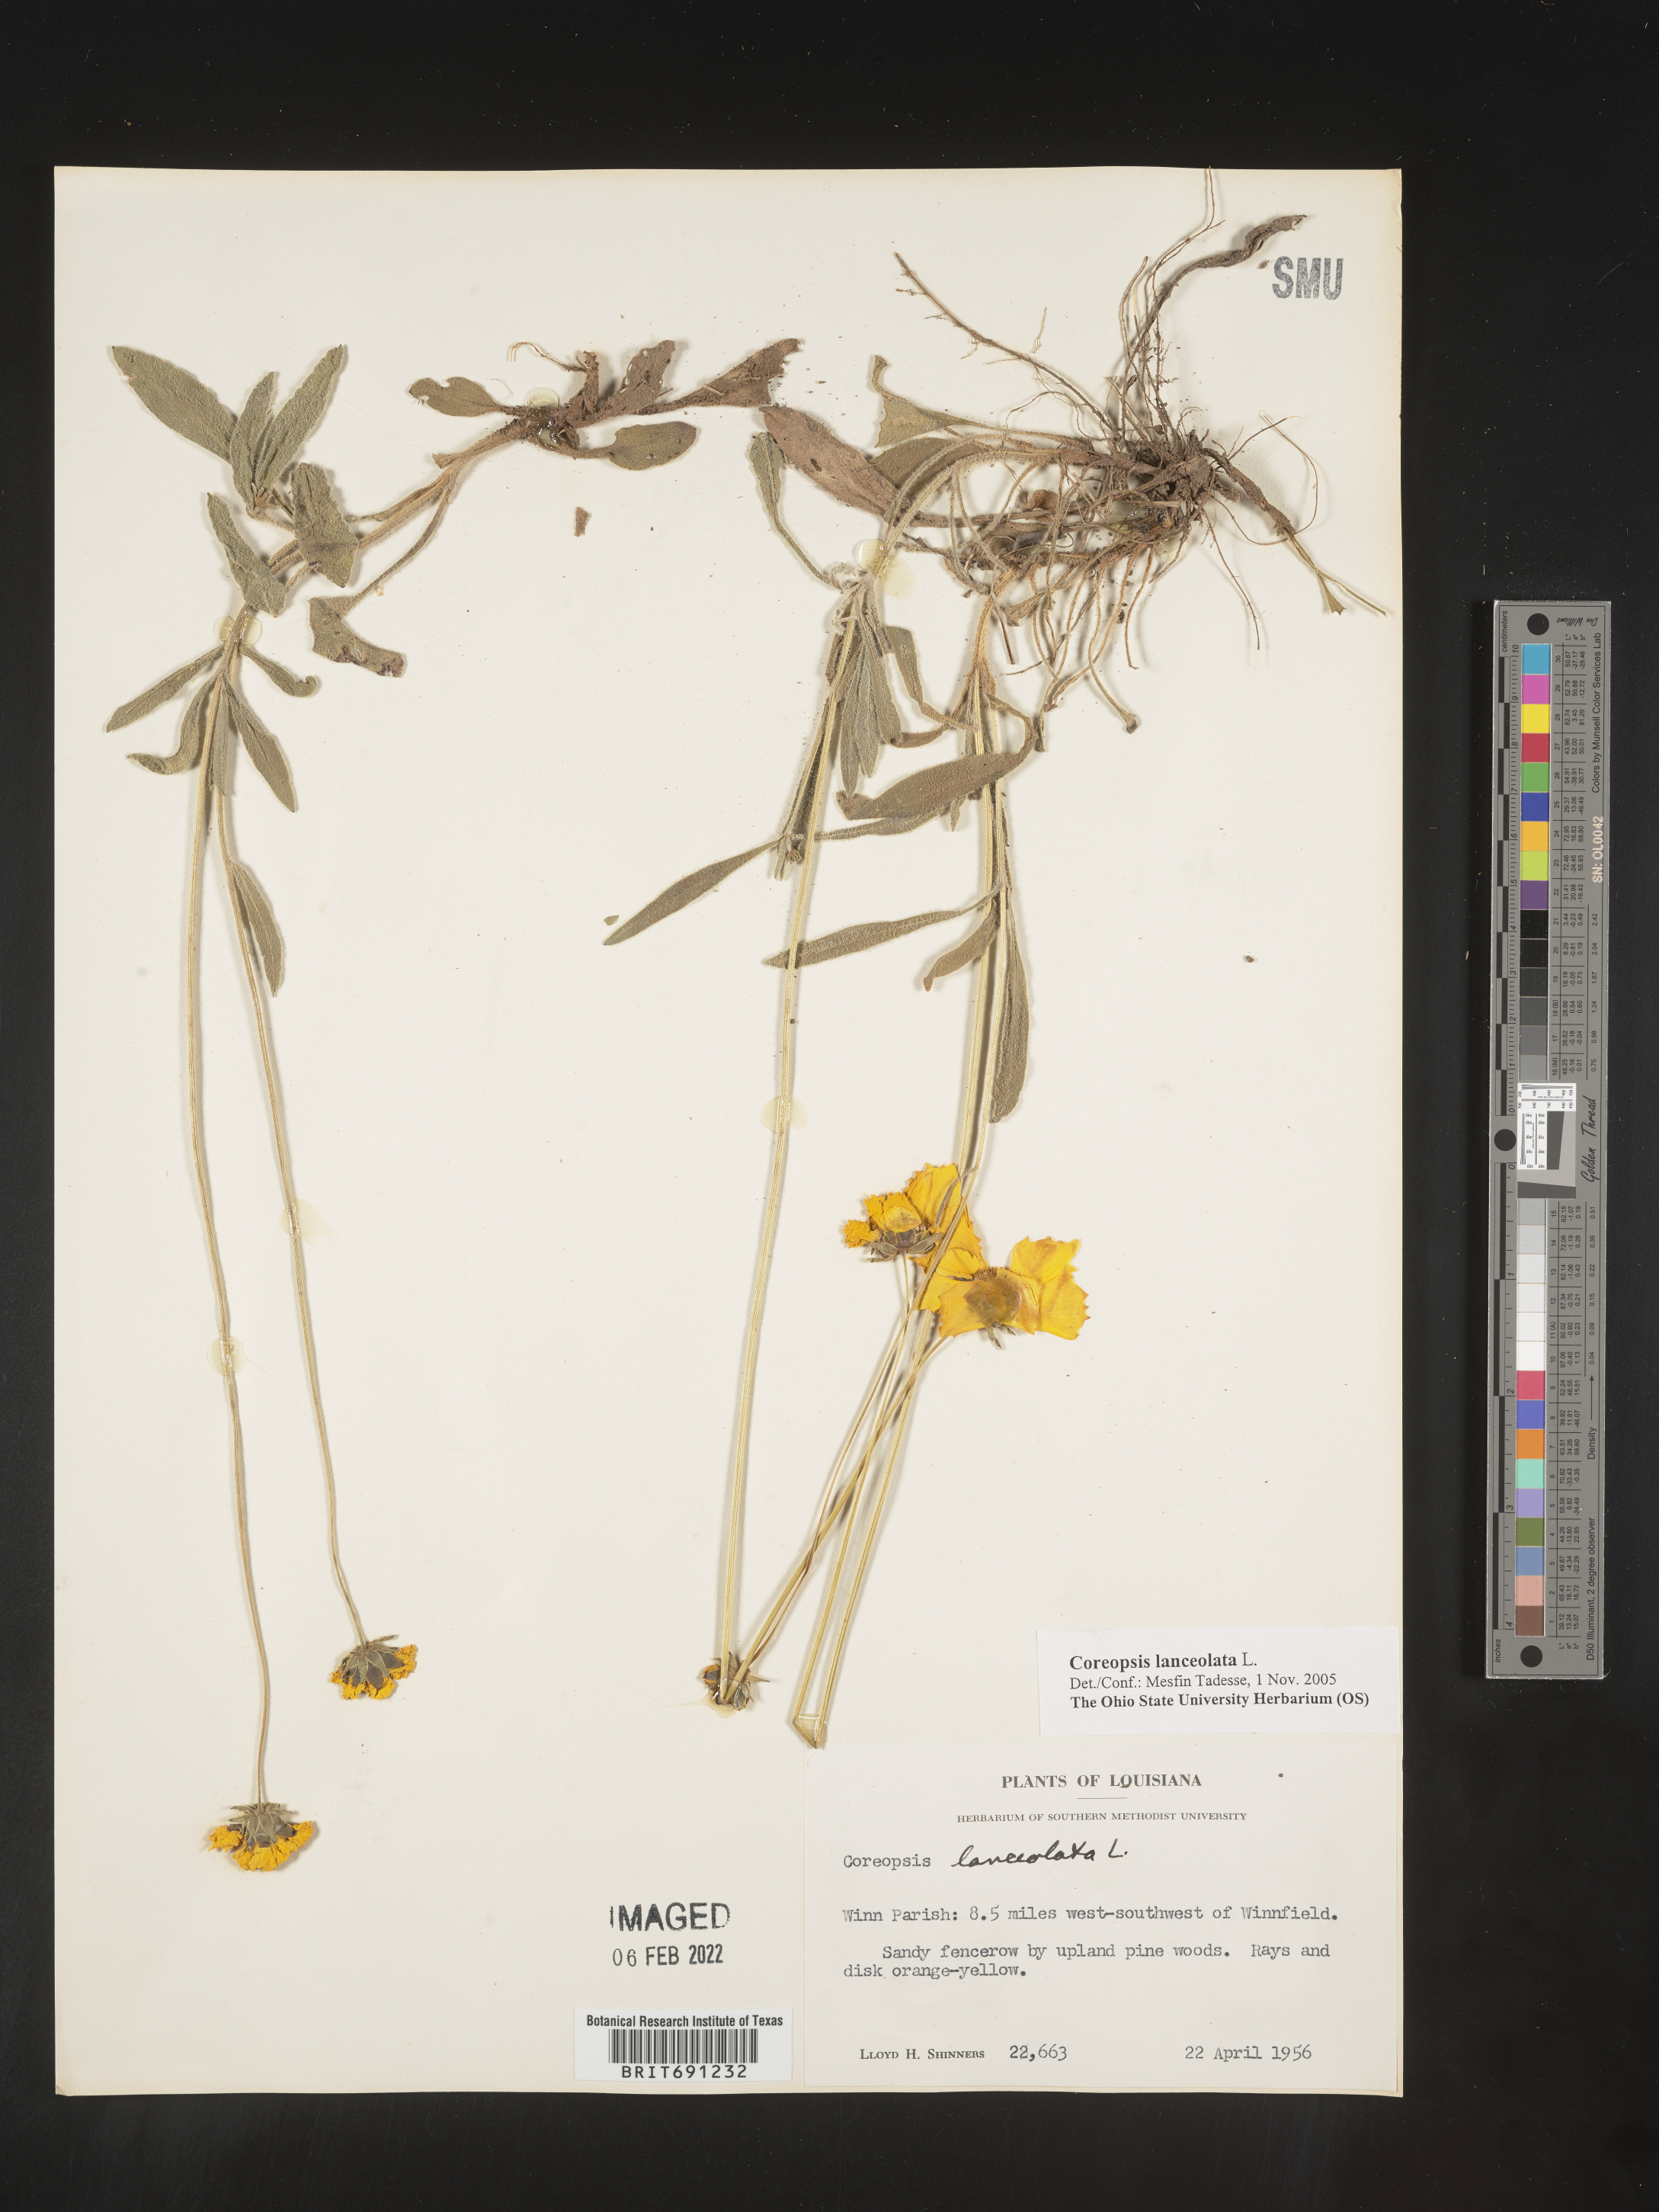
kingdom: Plantae
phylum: Tracheophyta
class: Magnoliopsida
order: Asterales
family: Asteraceae
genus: Coreopsis
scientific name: Coreopsis lanceolata
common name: Garden coreopsis
